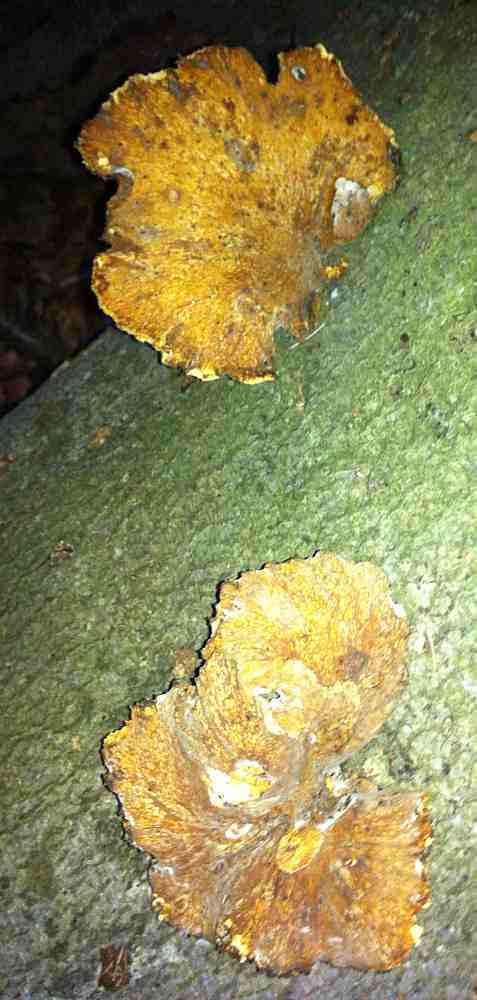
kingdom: Fungi
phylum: Basidiomycota
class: Agaricomycetes
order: Polyporales
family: Polyporaceae
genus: Cerioporus
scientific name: Cerioporus varius
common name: foranderlig stilkporesvamp
